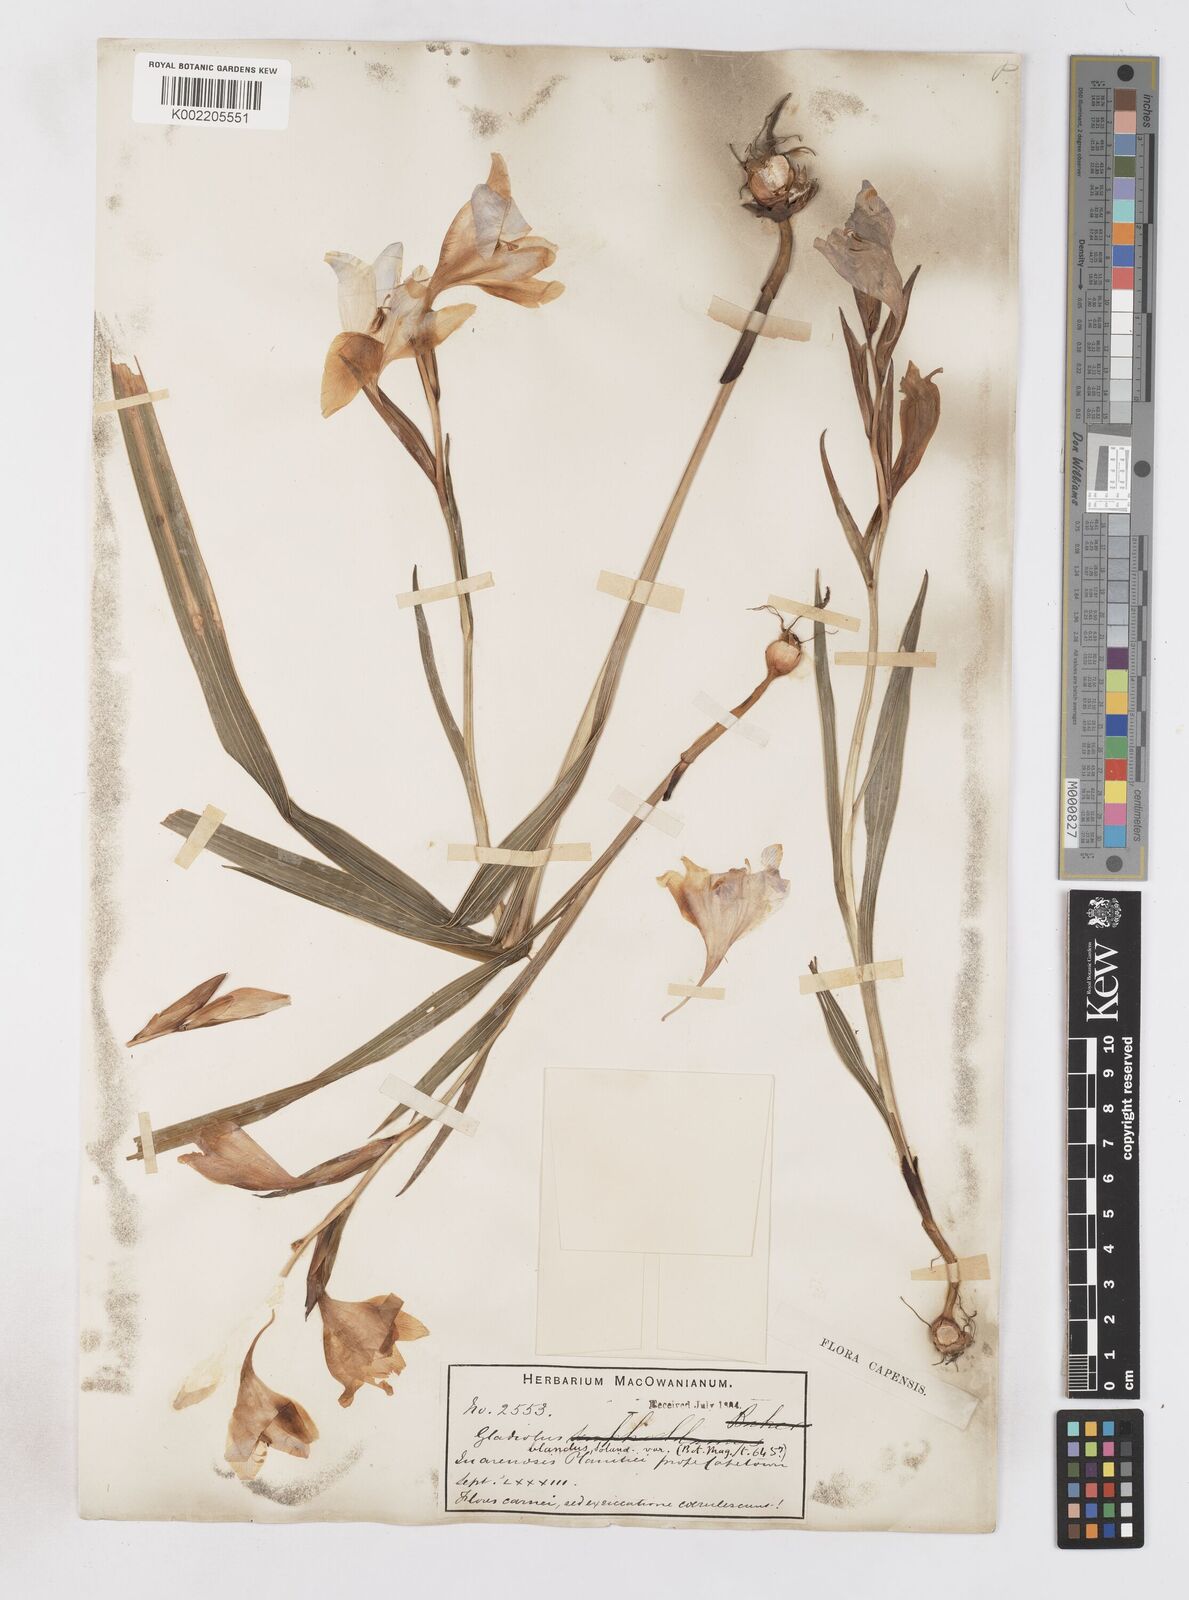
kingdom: Plantae
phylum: Tracheophyta
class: Liliopsida
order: Asparagales
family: Iridaceae
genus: Gladiolus
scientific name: Gladiolus carneus
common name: Painted-lady
